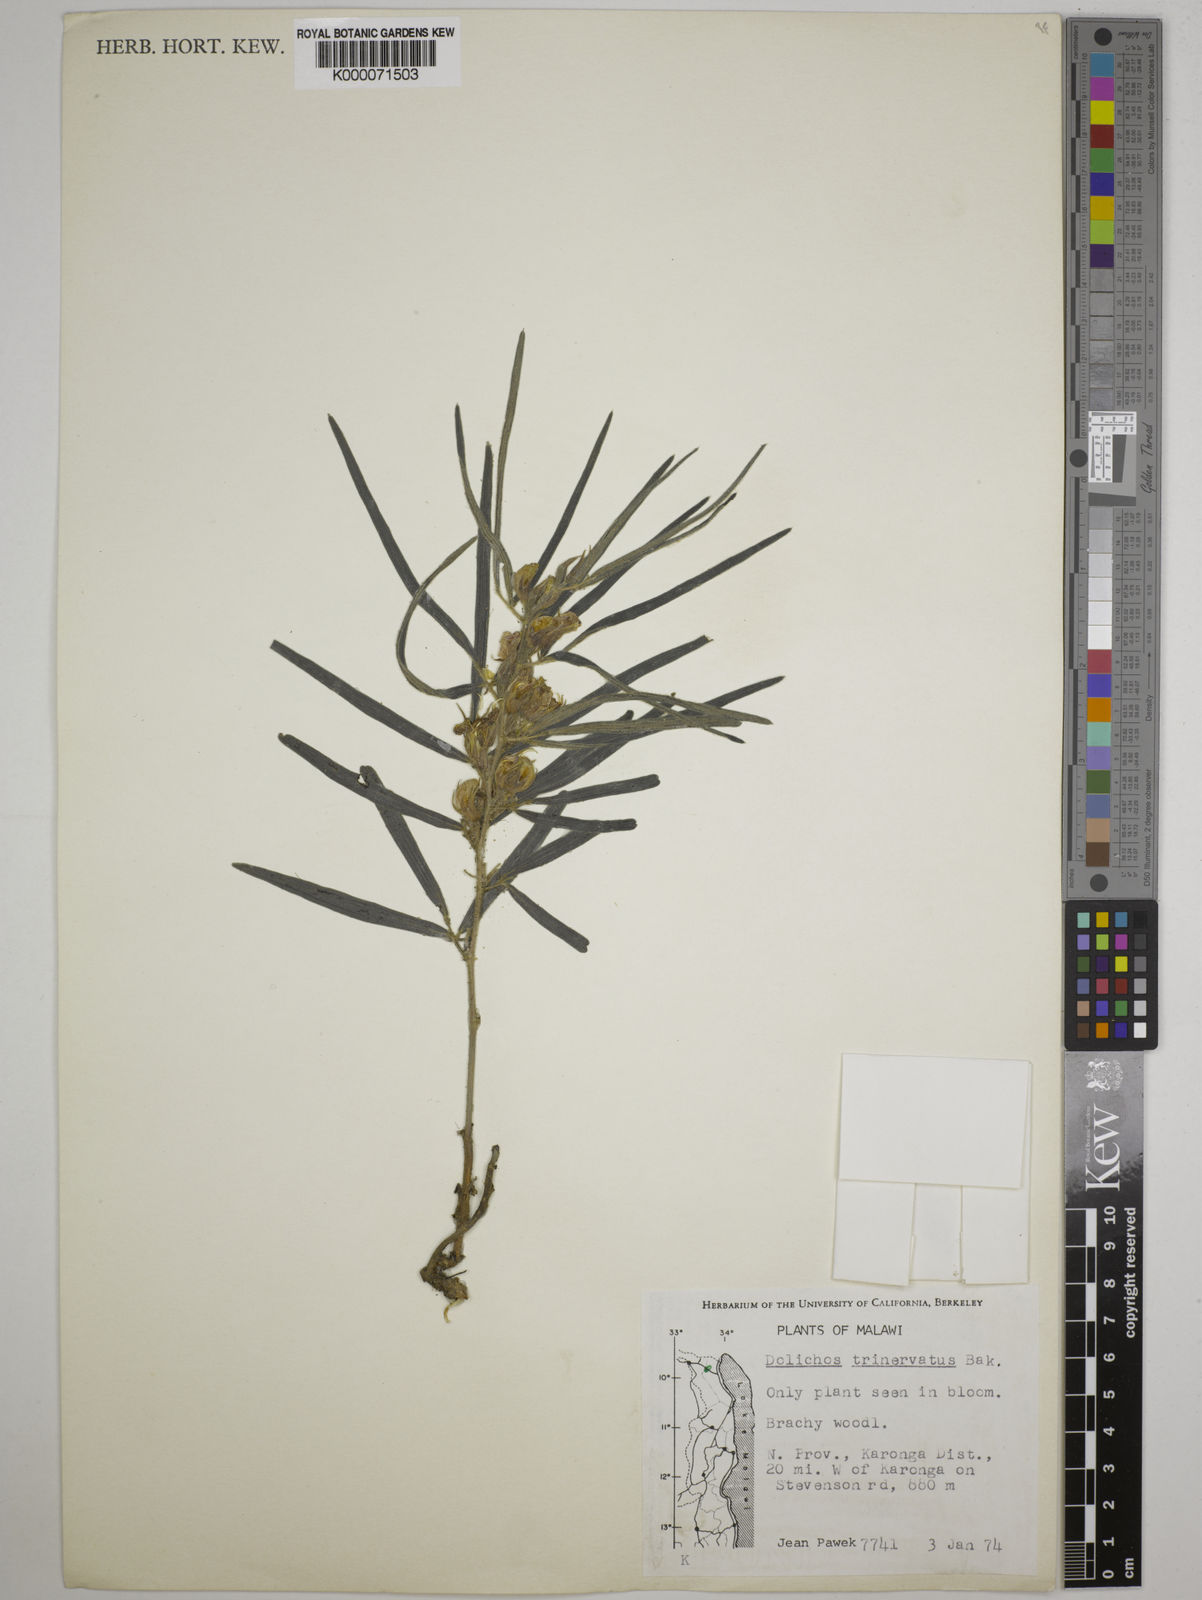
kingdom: Plantae
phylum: Tracheophyta
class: Magnoliopsida
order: Fabales
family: Fabaceae
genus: Dolichos
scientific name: Dolichos trinervatus
